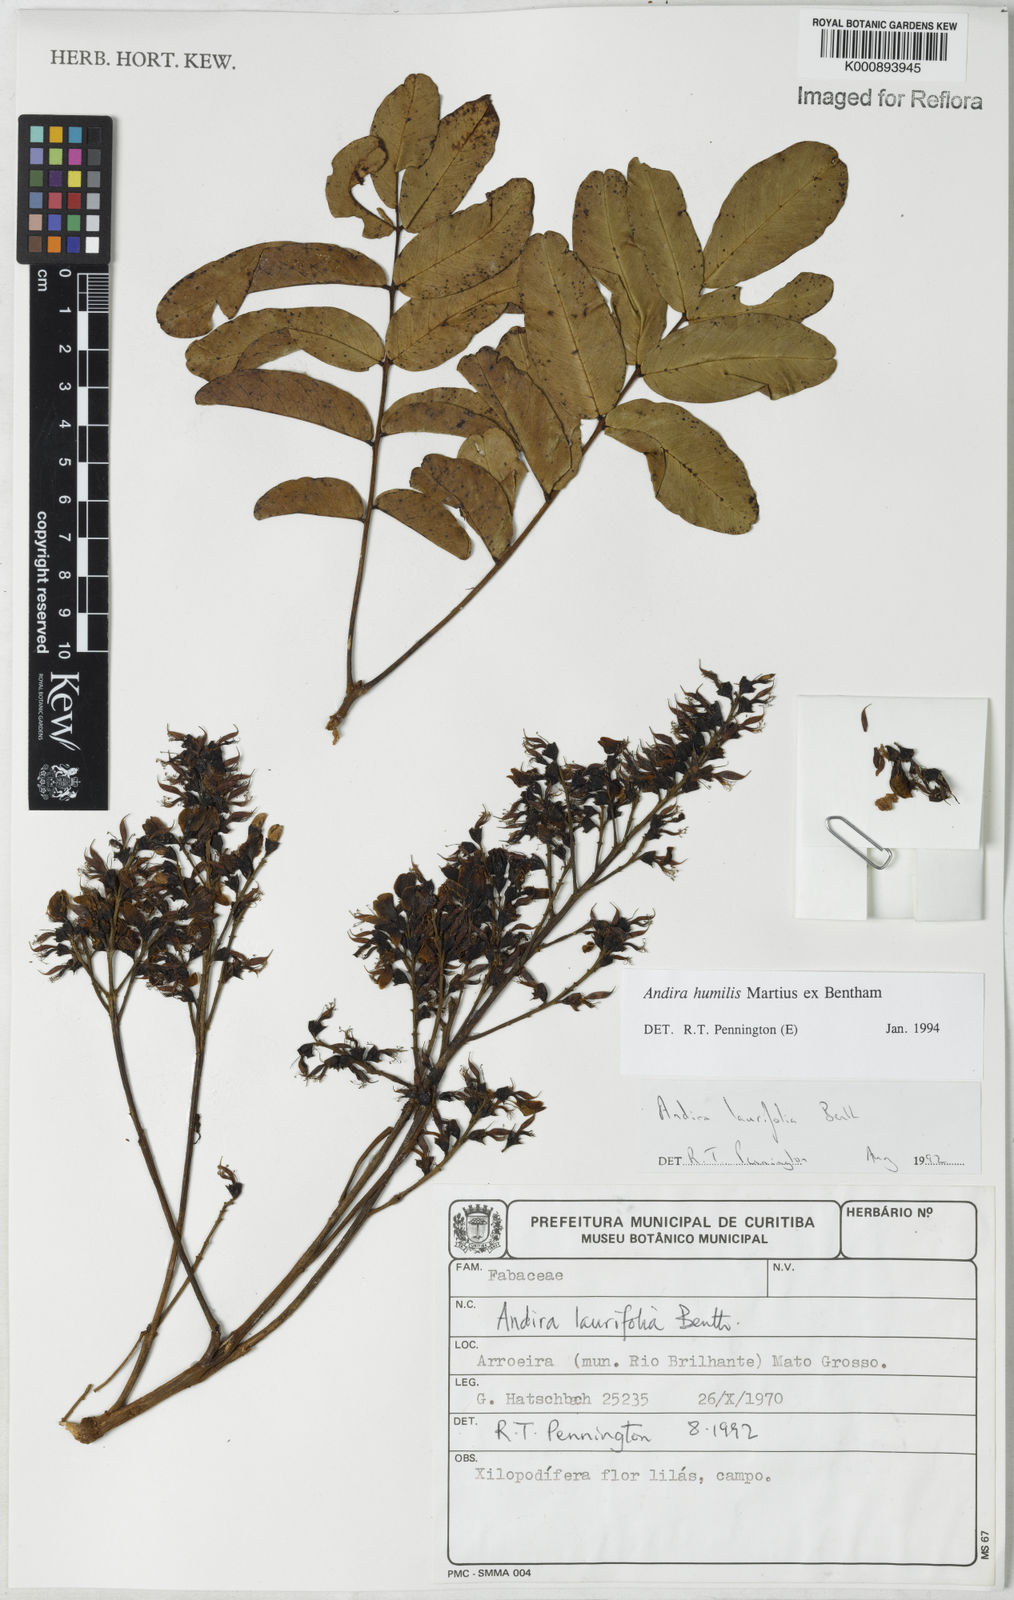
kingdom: Plantae
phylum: Tracheophyta
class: Magnoliopsida
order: Fabales
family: Fabaceae
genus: Andira
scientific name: Andira humilis
